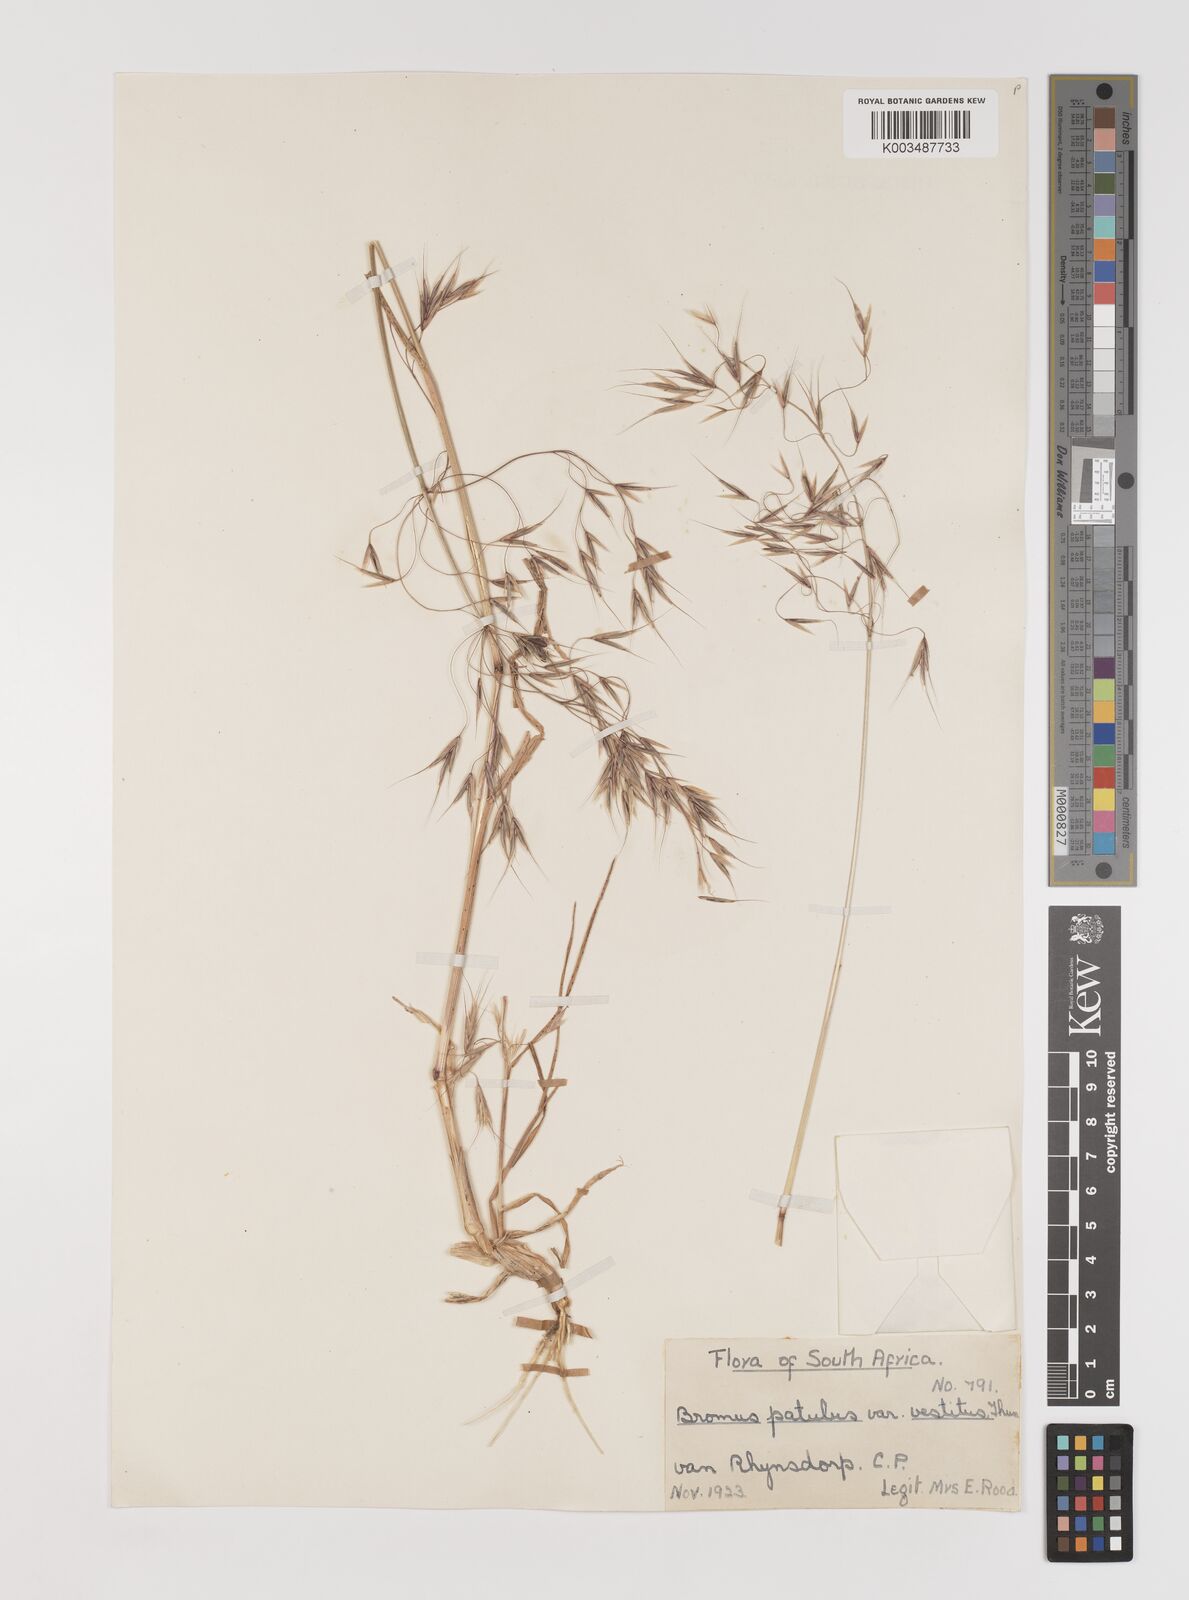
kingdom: Plantae
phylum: Tracheophyta
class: Liliopsida
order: Poales
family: Poaceae
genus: Bromus
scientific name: Bromus pectinatus
